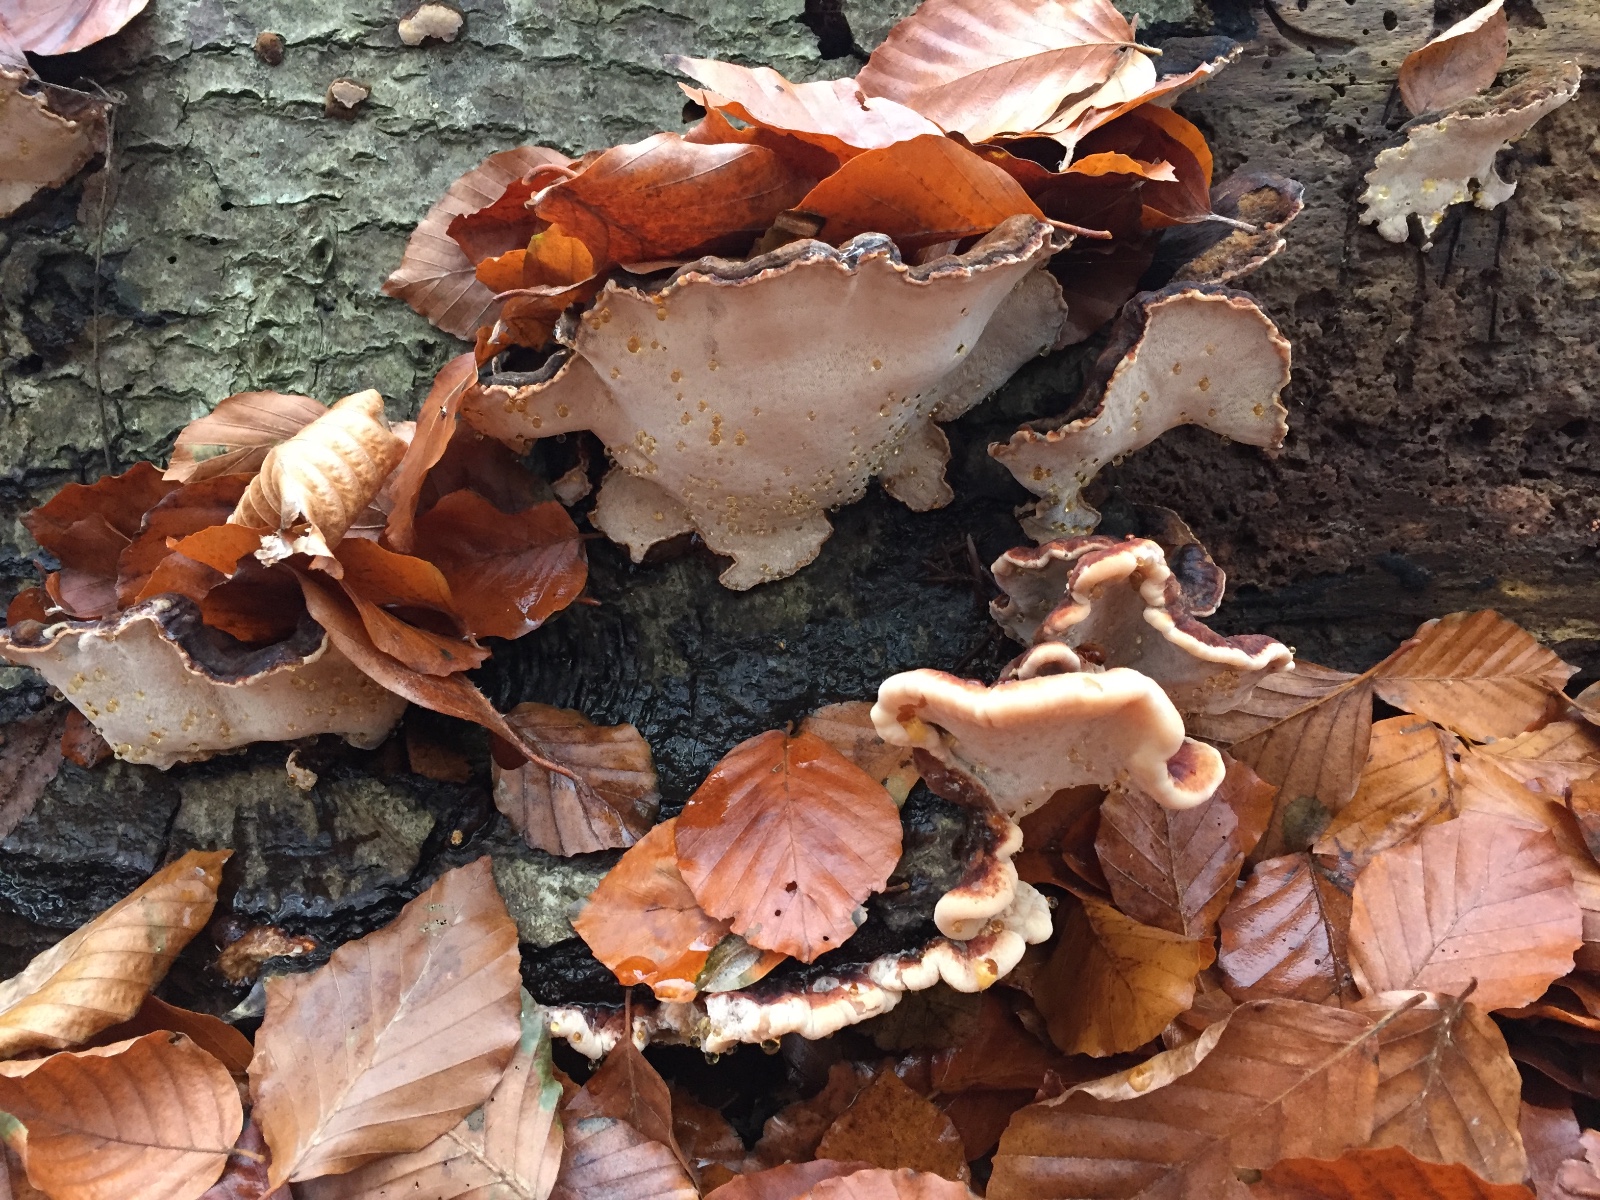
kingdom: Fungi
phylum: Basidiomycota
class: Agaricomycetes
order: Polyporales
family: Ischnodermataceae
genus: Ischnoderma
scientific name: Ischnoderma resinosum
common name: løv-tjæreporesvamp
